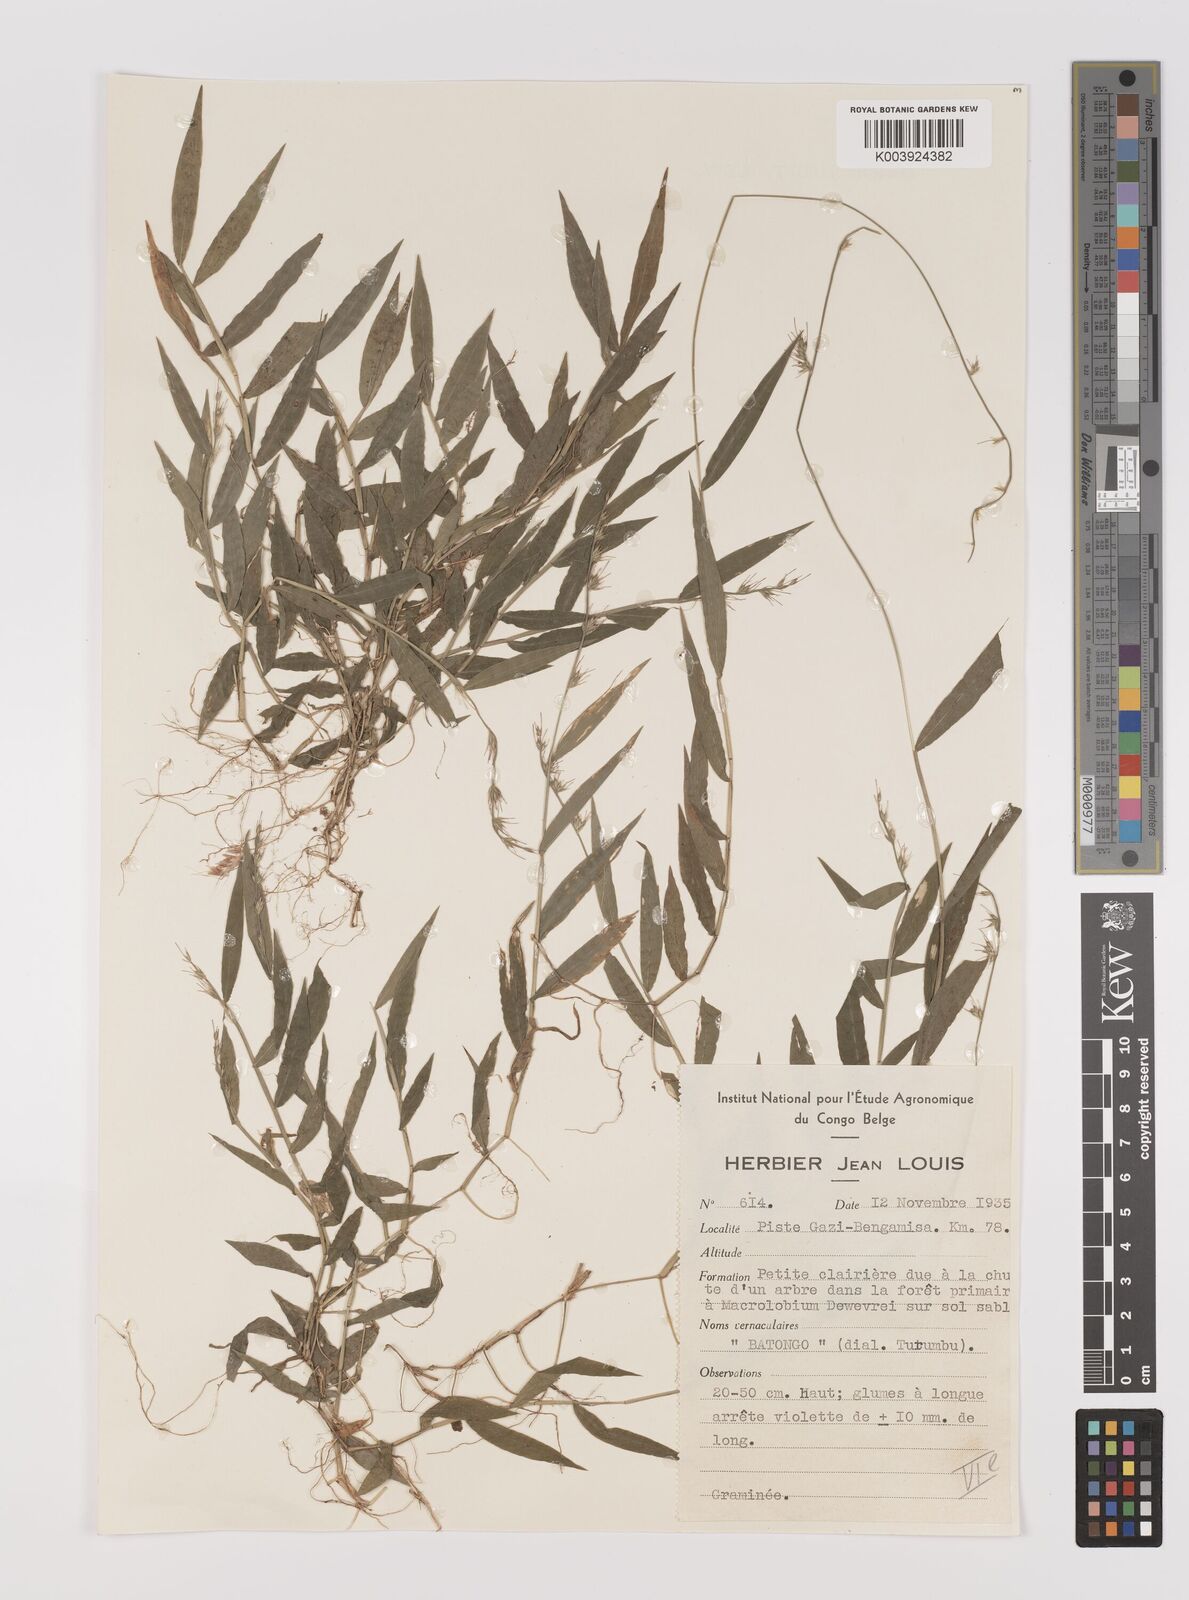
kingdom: Plantae
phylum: Tracheophyta
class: Liliopsida
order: Poales
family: Poaceae
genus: Oplismenus
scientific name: Oplismenus hirtellus
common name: Basketgrass
